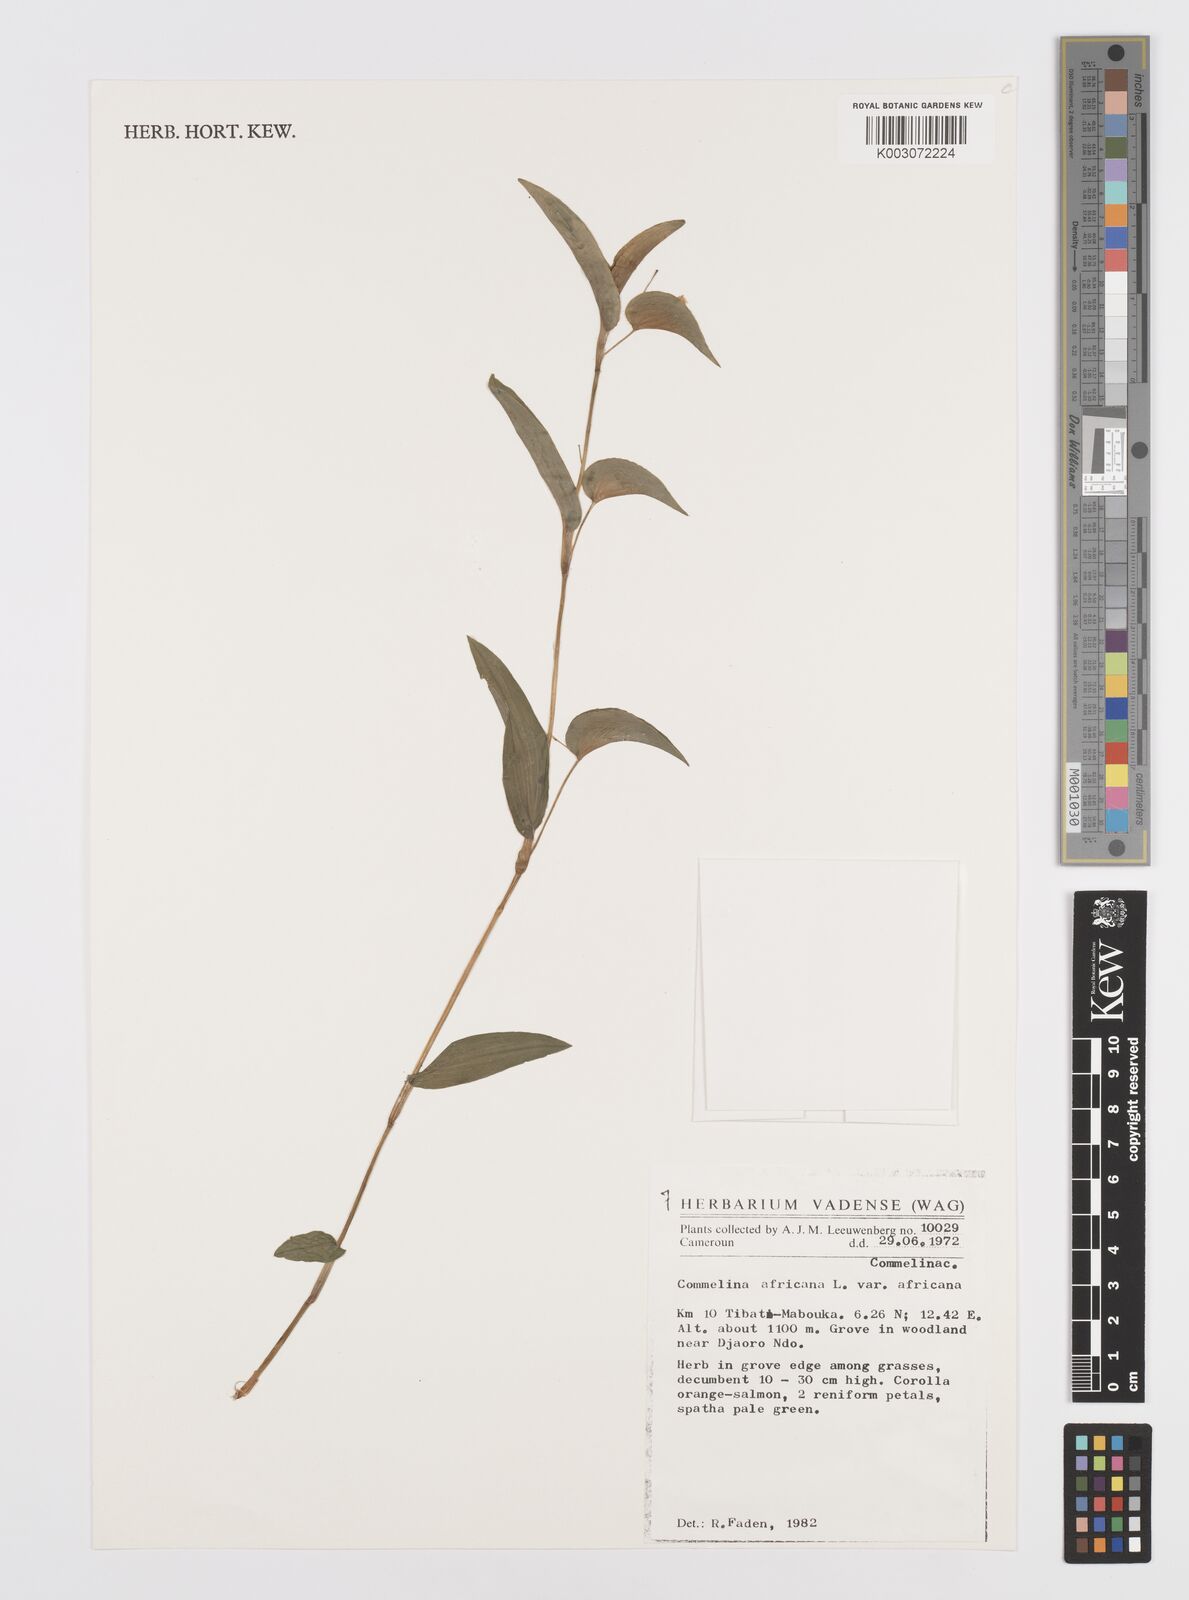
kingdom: Plantae
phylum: Tracheophyta
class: Liliopsida
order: Commelinales
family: Commelinaceae
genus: Commelina
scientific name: Commelina africana
